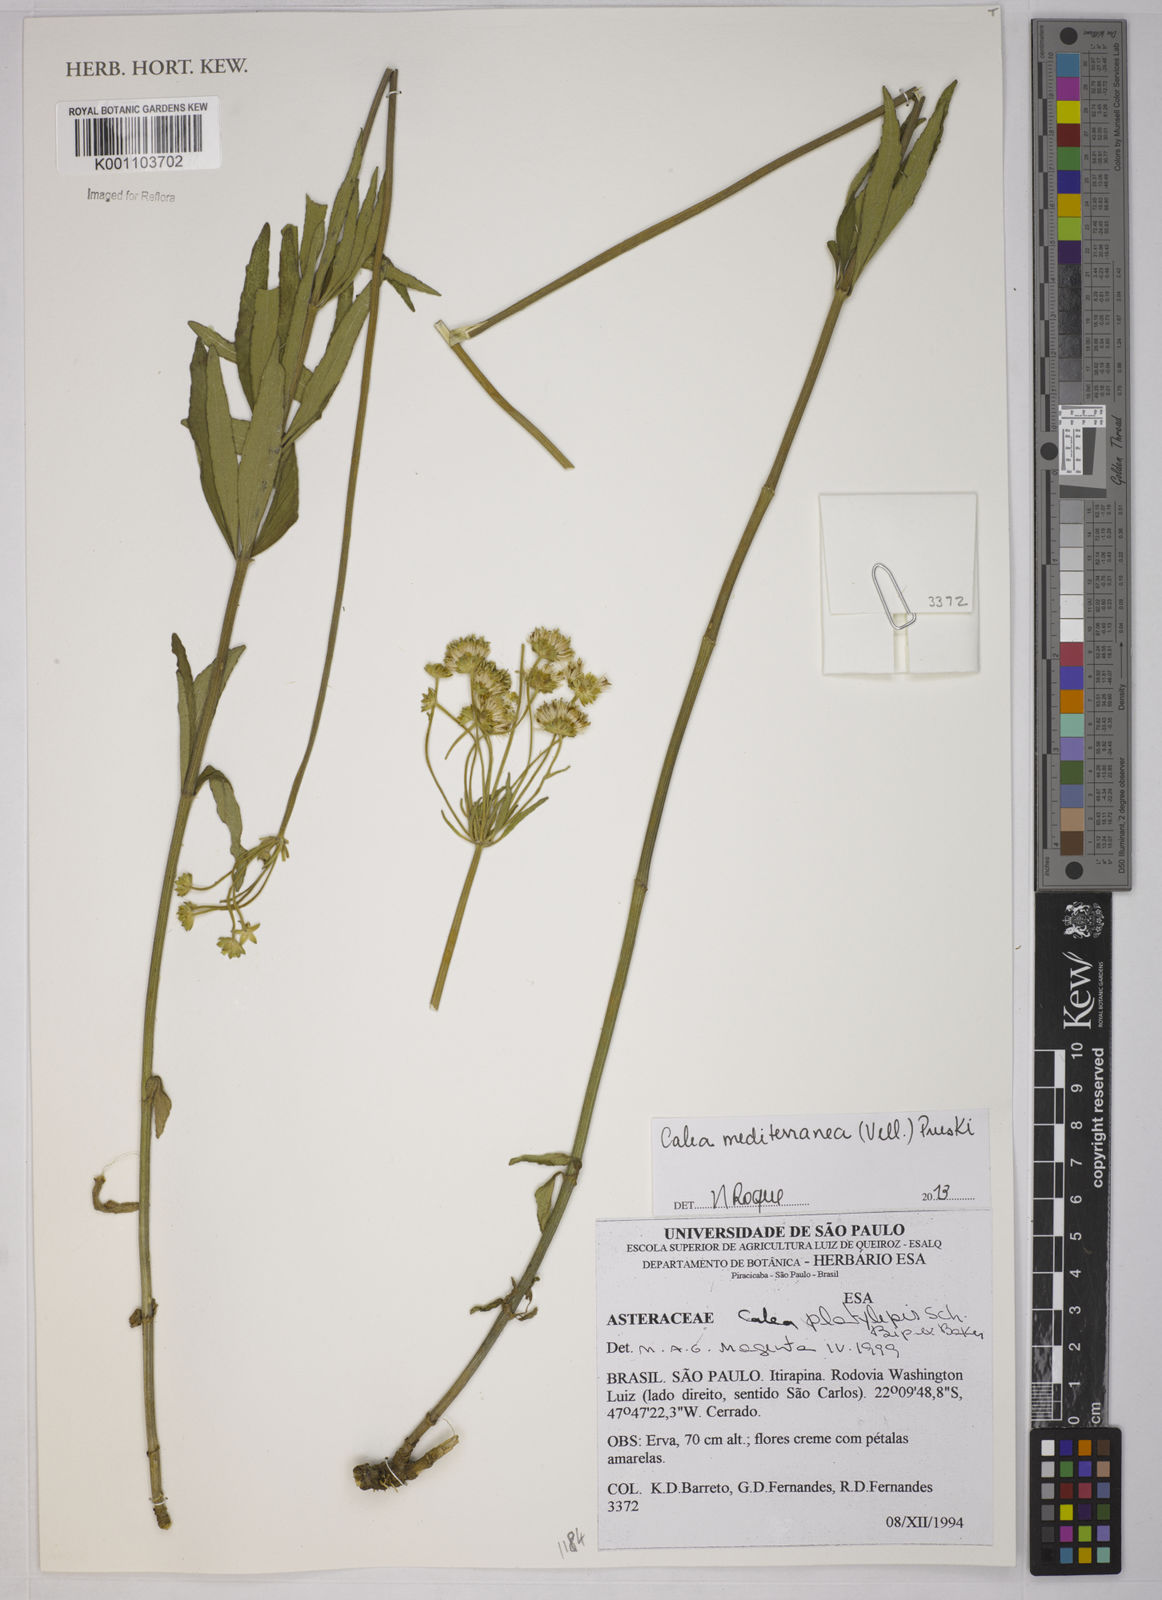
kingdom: Plantae
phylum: Tracheophyta
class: Magnoliopsida
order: Asterales
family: Asteraceae
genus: Calea
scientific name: Calea mediterranea
